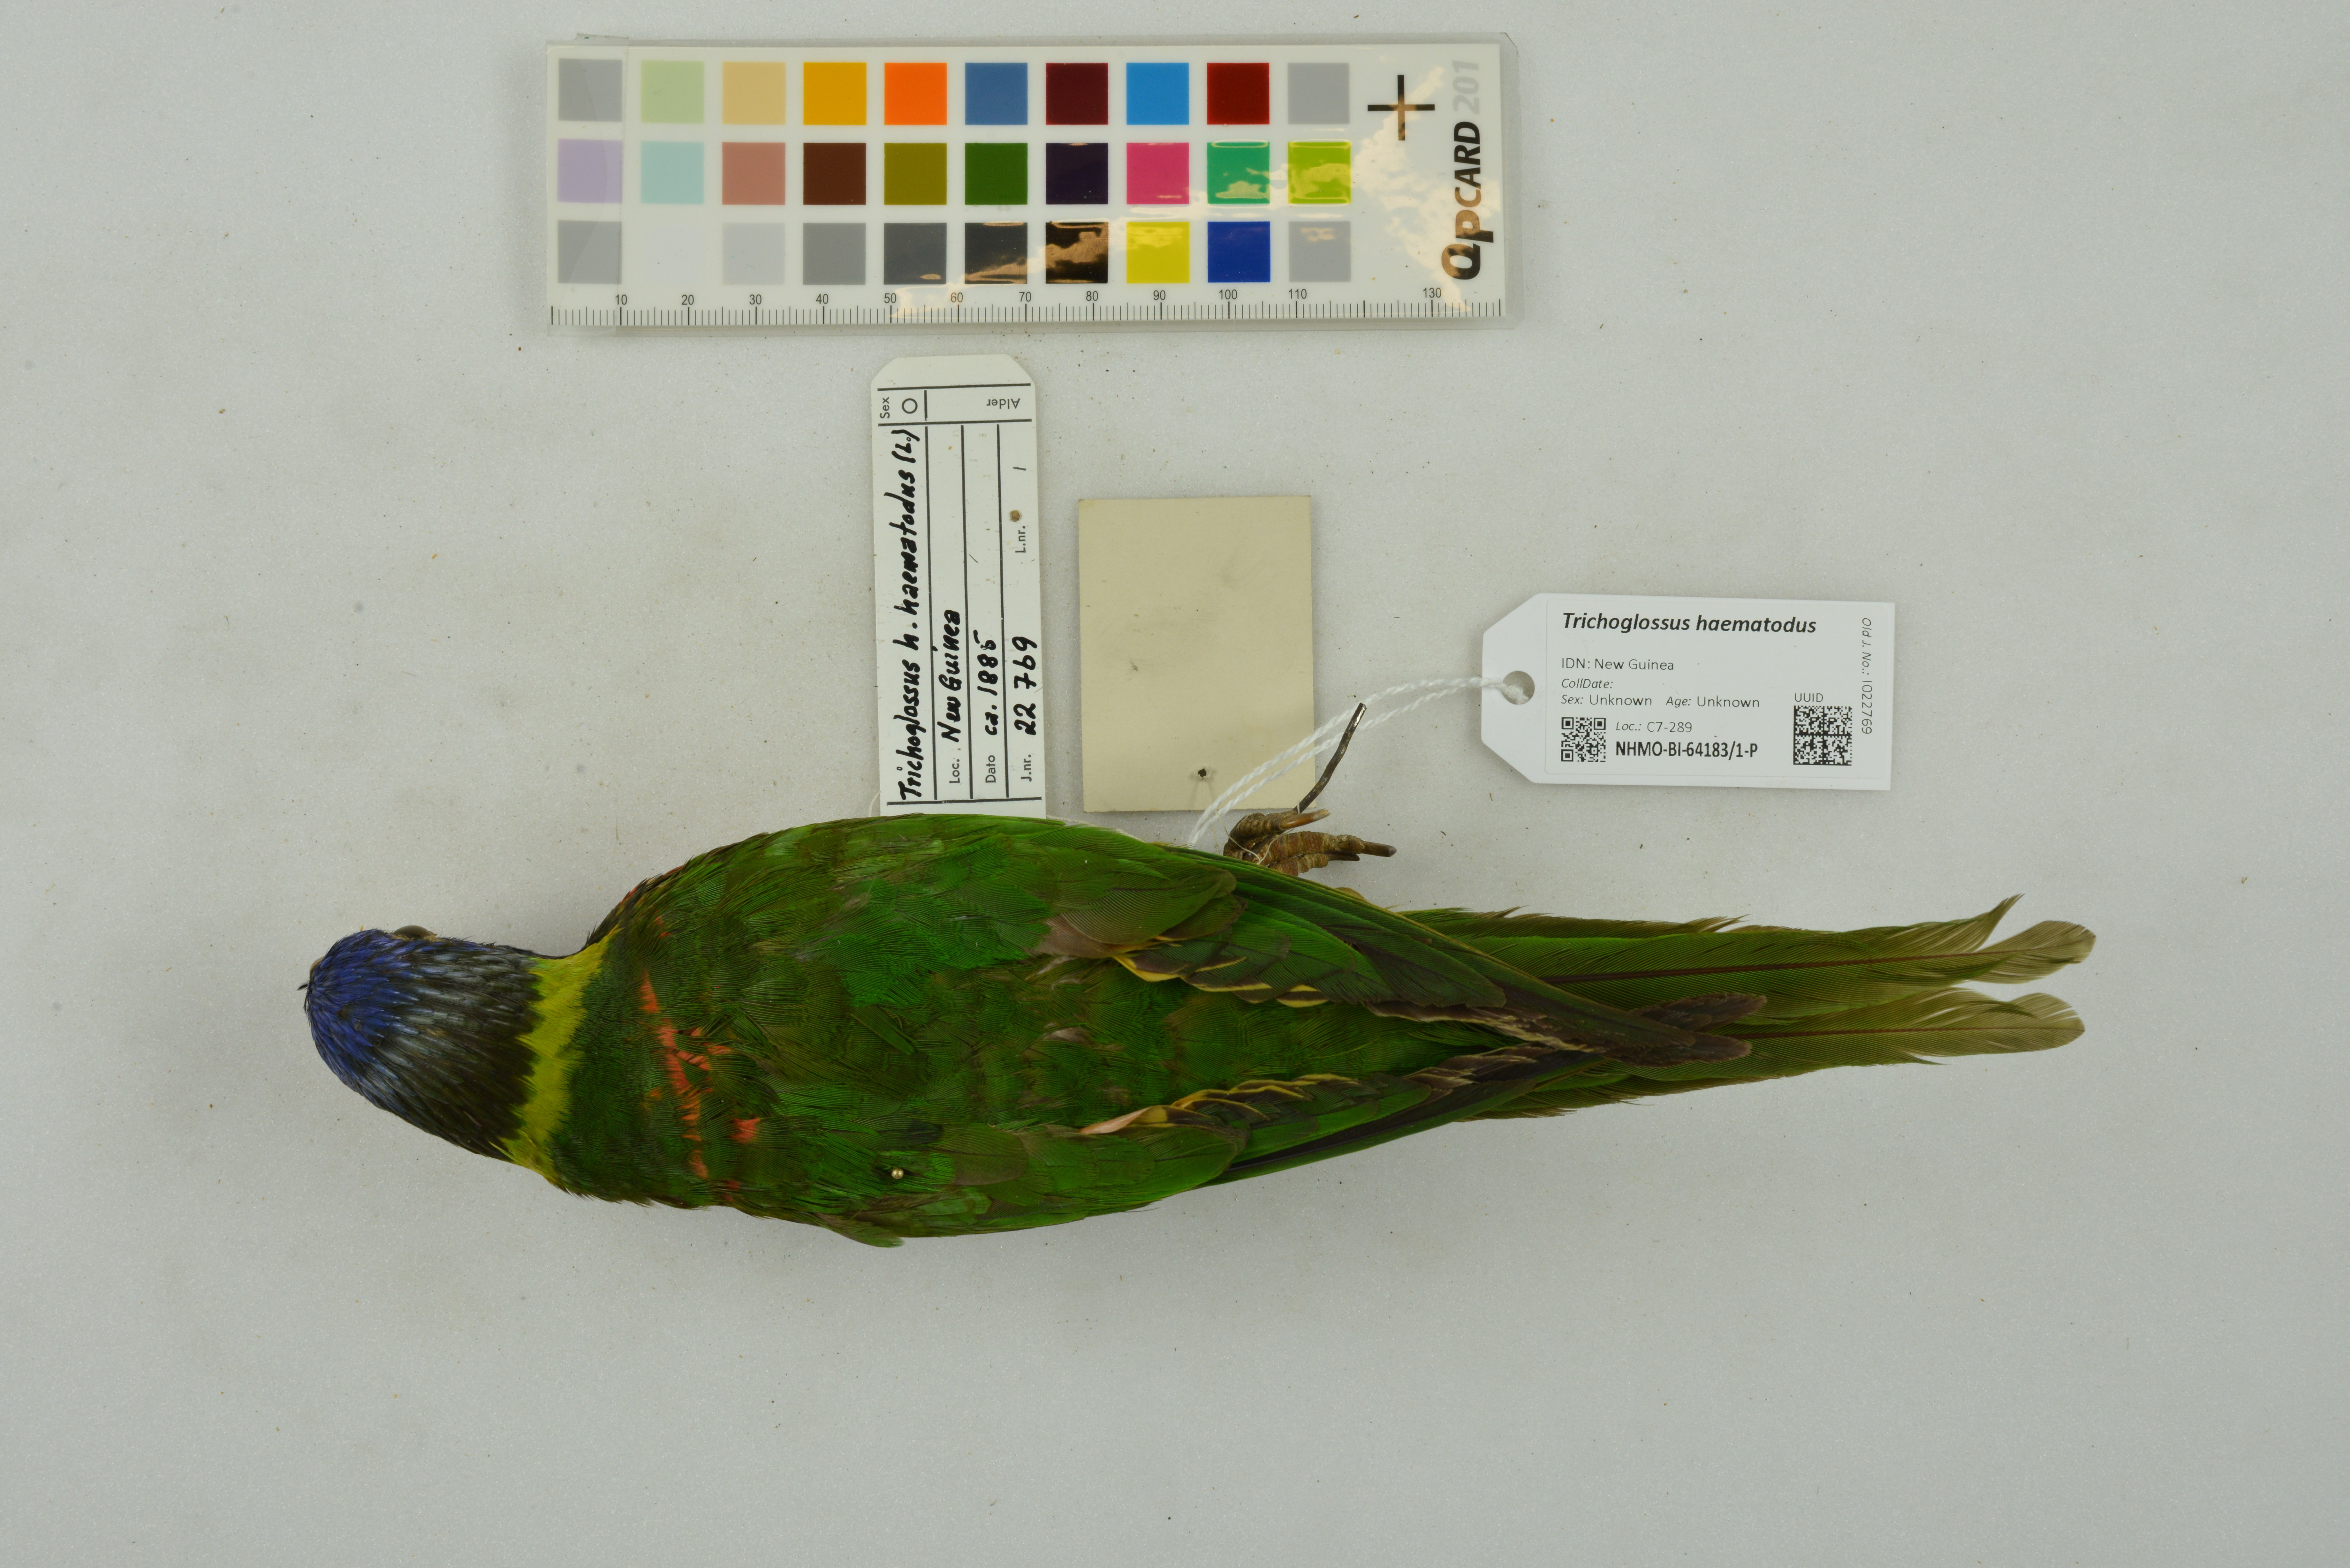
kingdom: Animalia
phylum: Chordata
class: Aves
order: Psittaciformes
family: Psittacidae
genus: Trichoglossus
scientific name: Trichoglossus haematodus
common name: Coconut lorikeet
